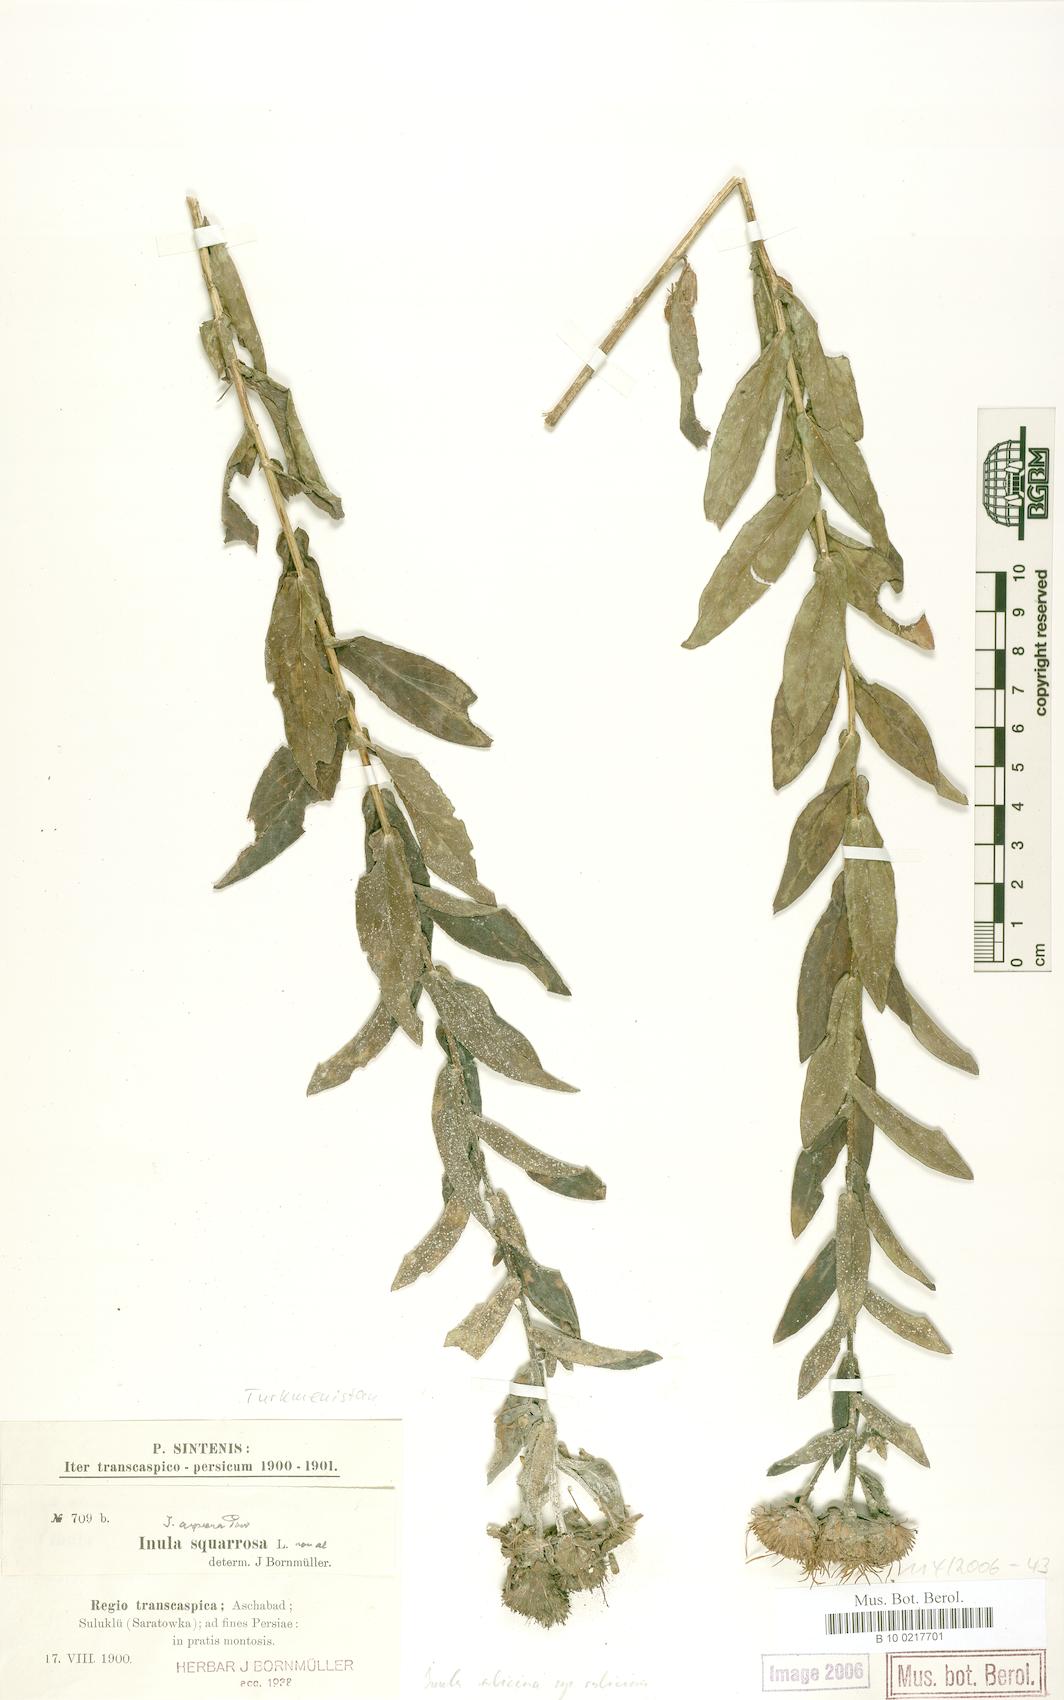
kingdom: Plantae
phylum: Tracheophyta
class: Magnoliopsida
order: Asterales
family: Asteraceae
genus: Pentanema
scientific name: Pentanema salicinum
